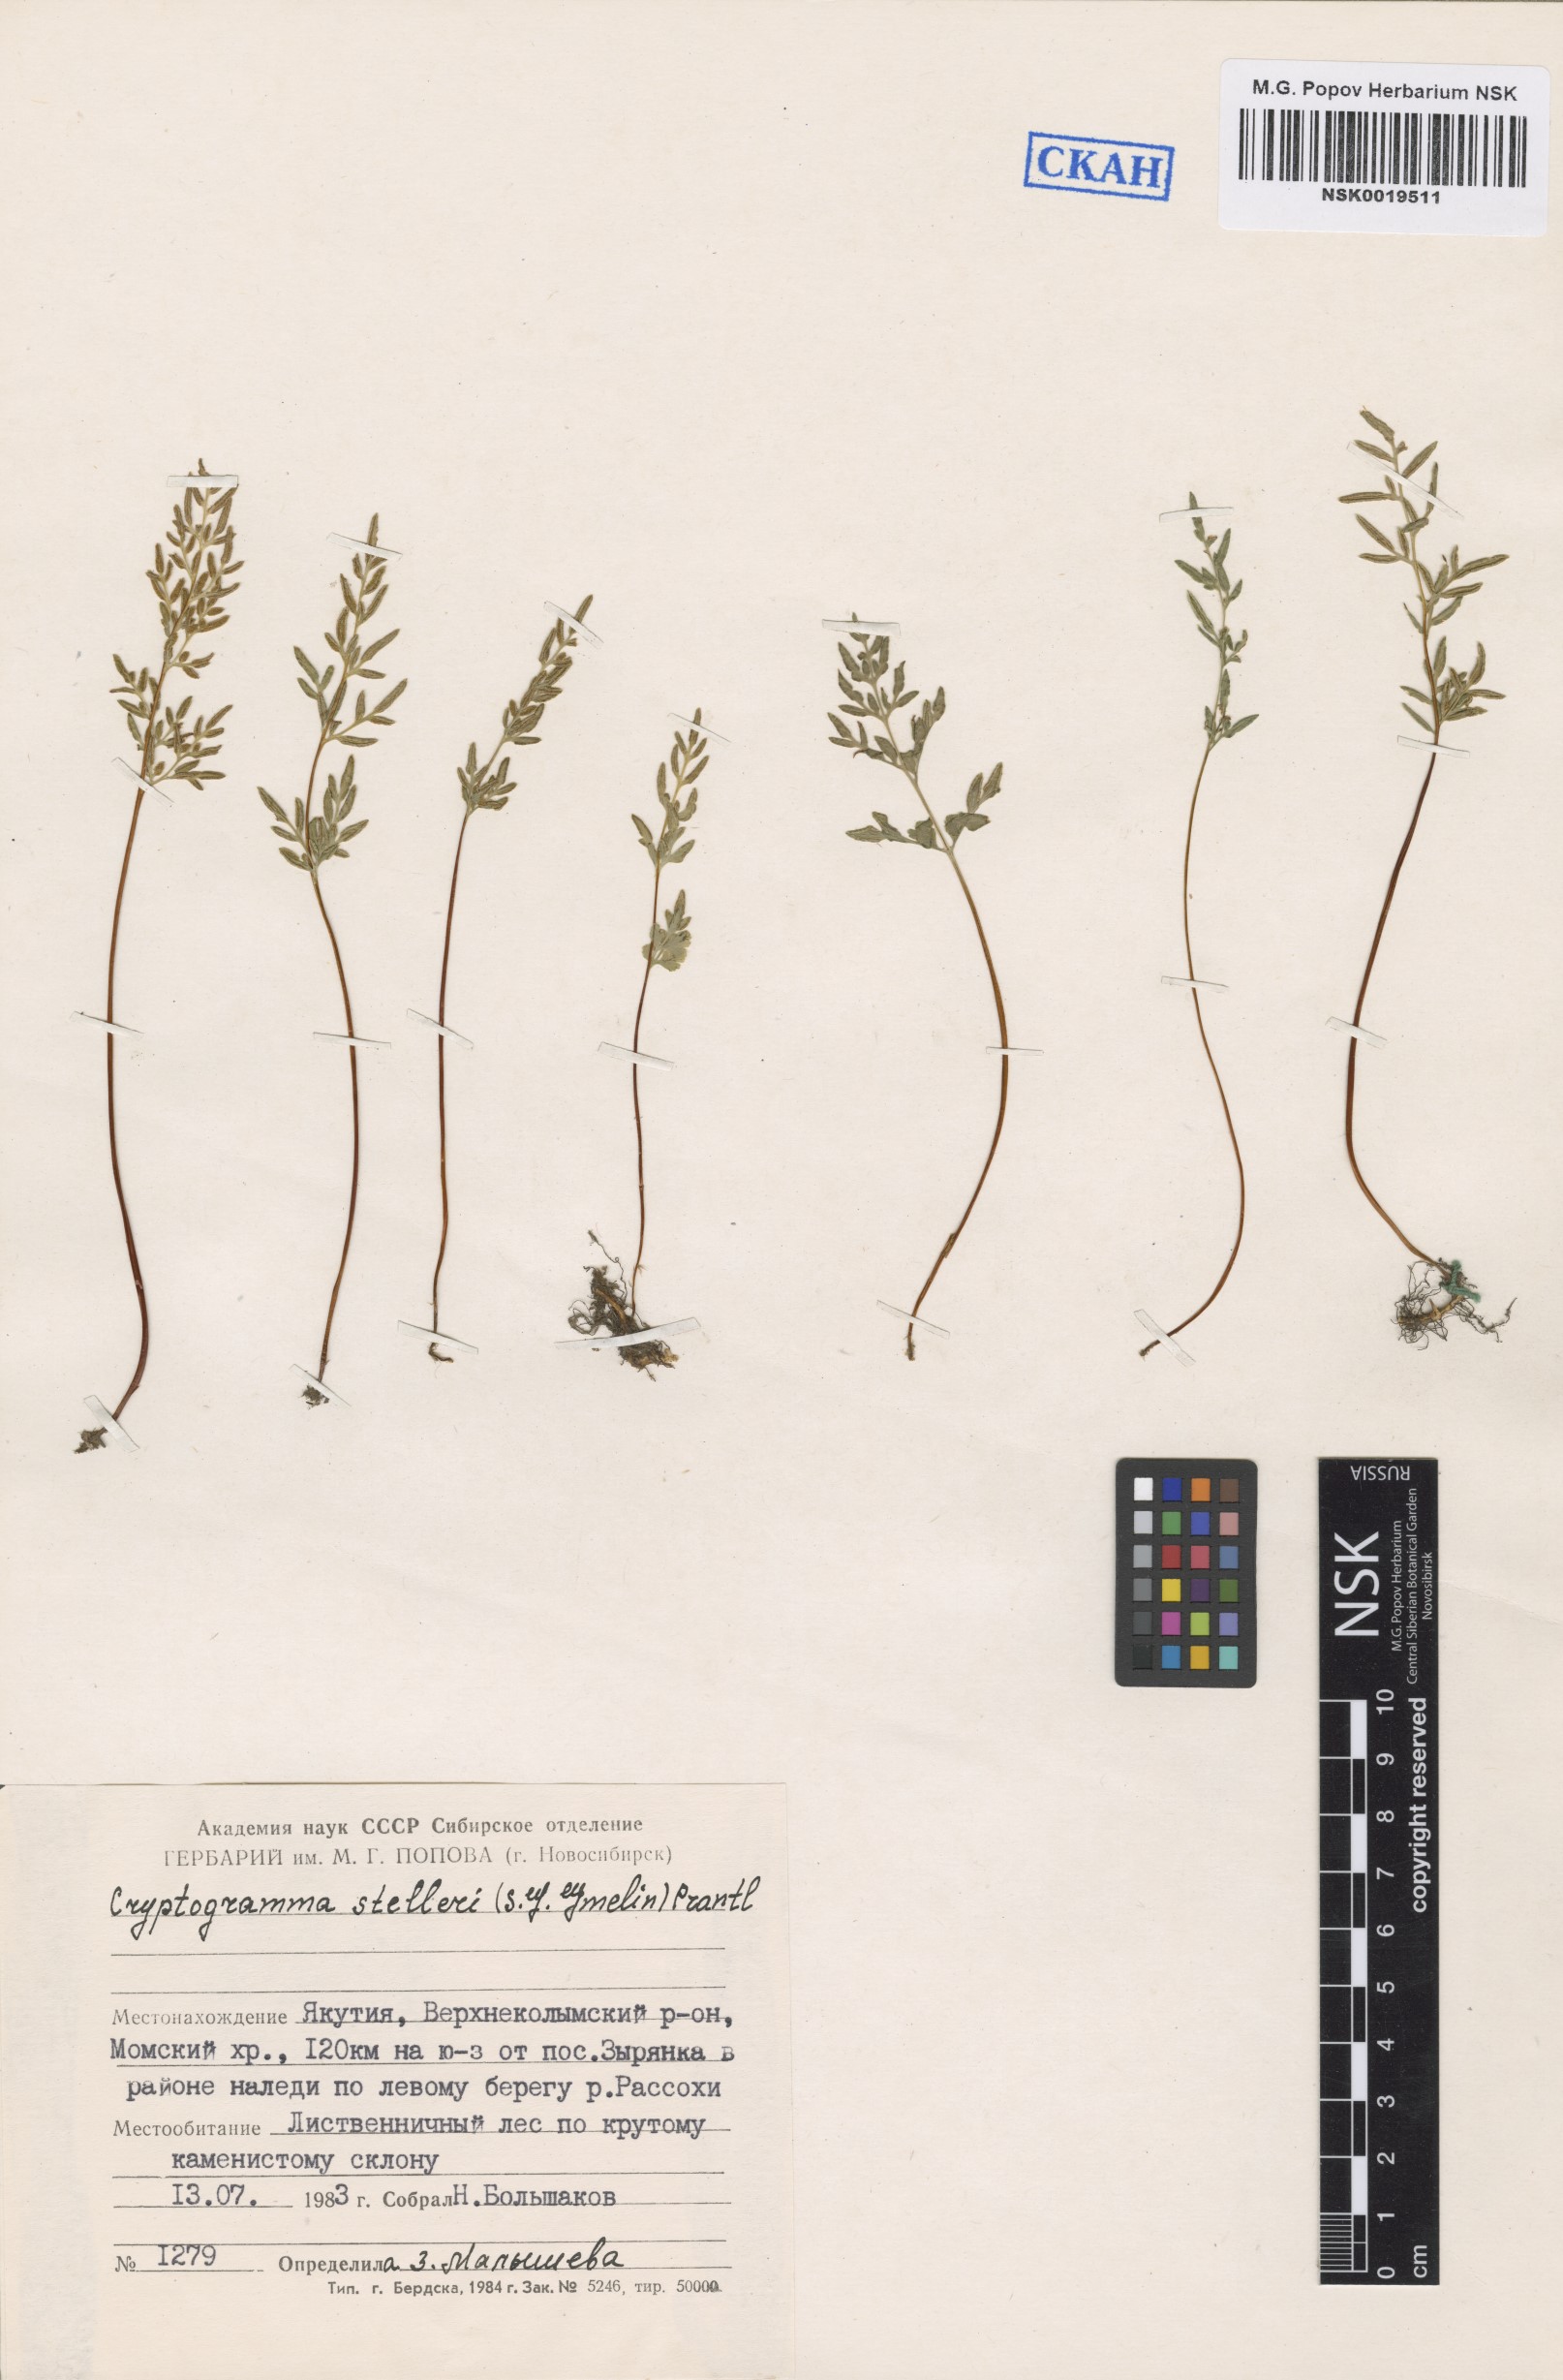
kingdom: Plantae
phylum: Tracheophyta
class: Polypodiopsida
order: Polypodiales
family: Pteridaceae
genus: Cryptogramma
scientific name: Cryptogramma stelleri
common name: Cliff-brake
